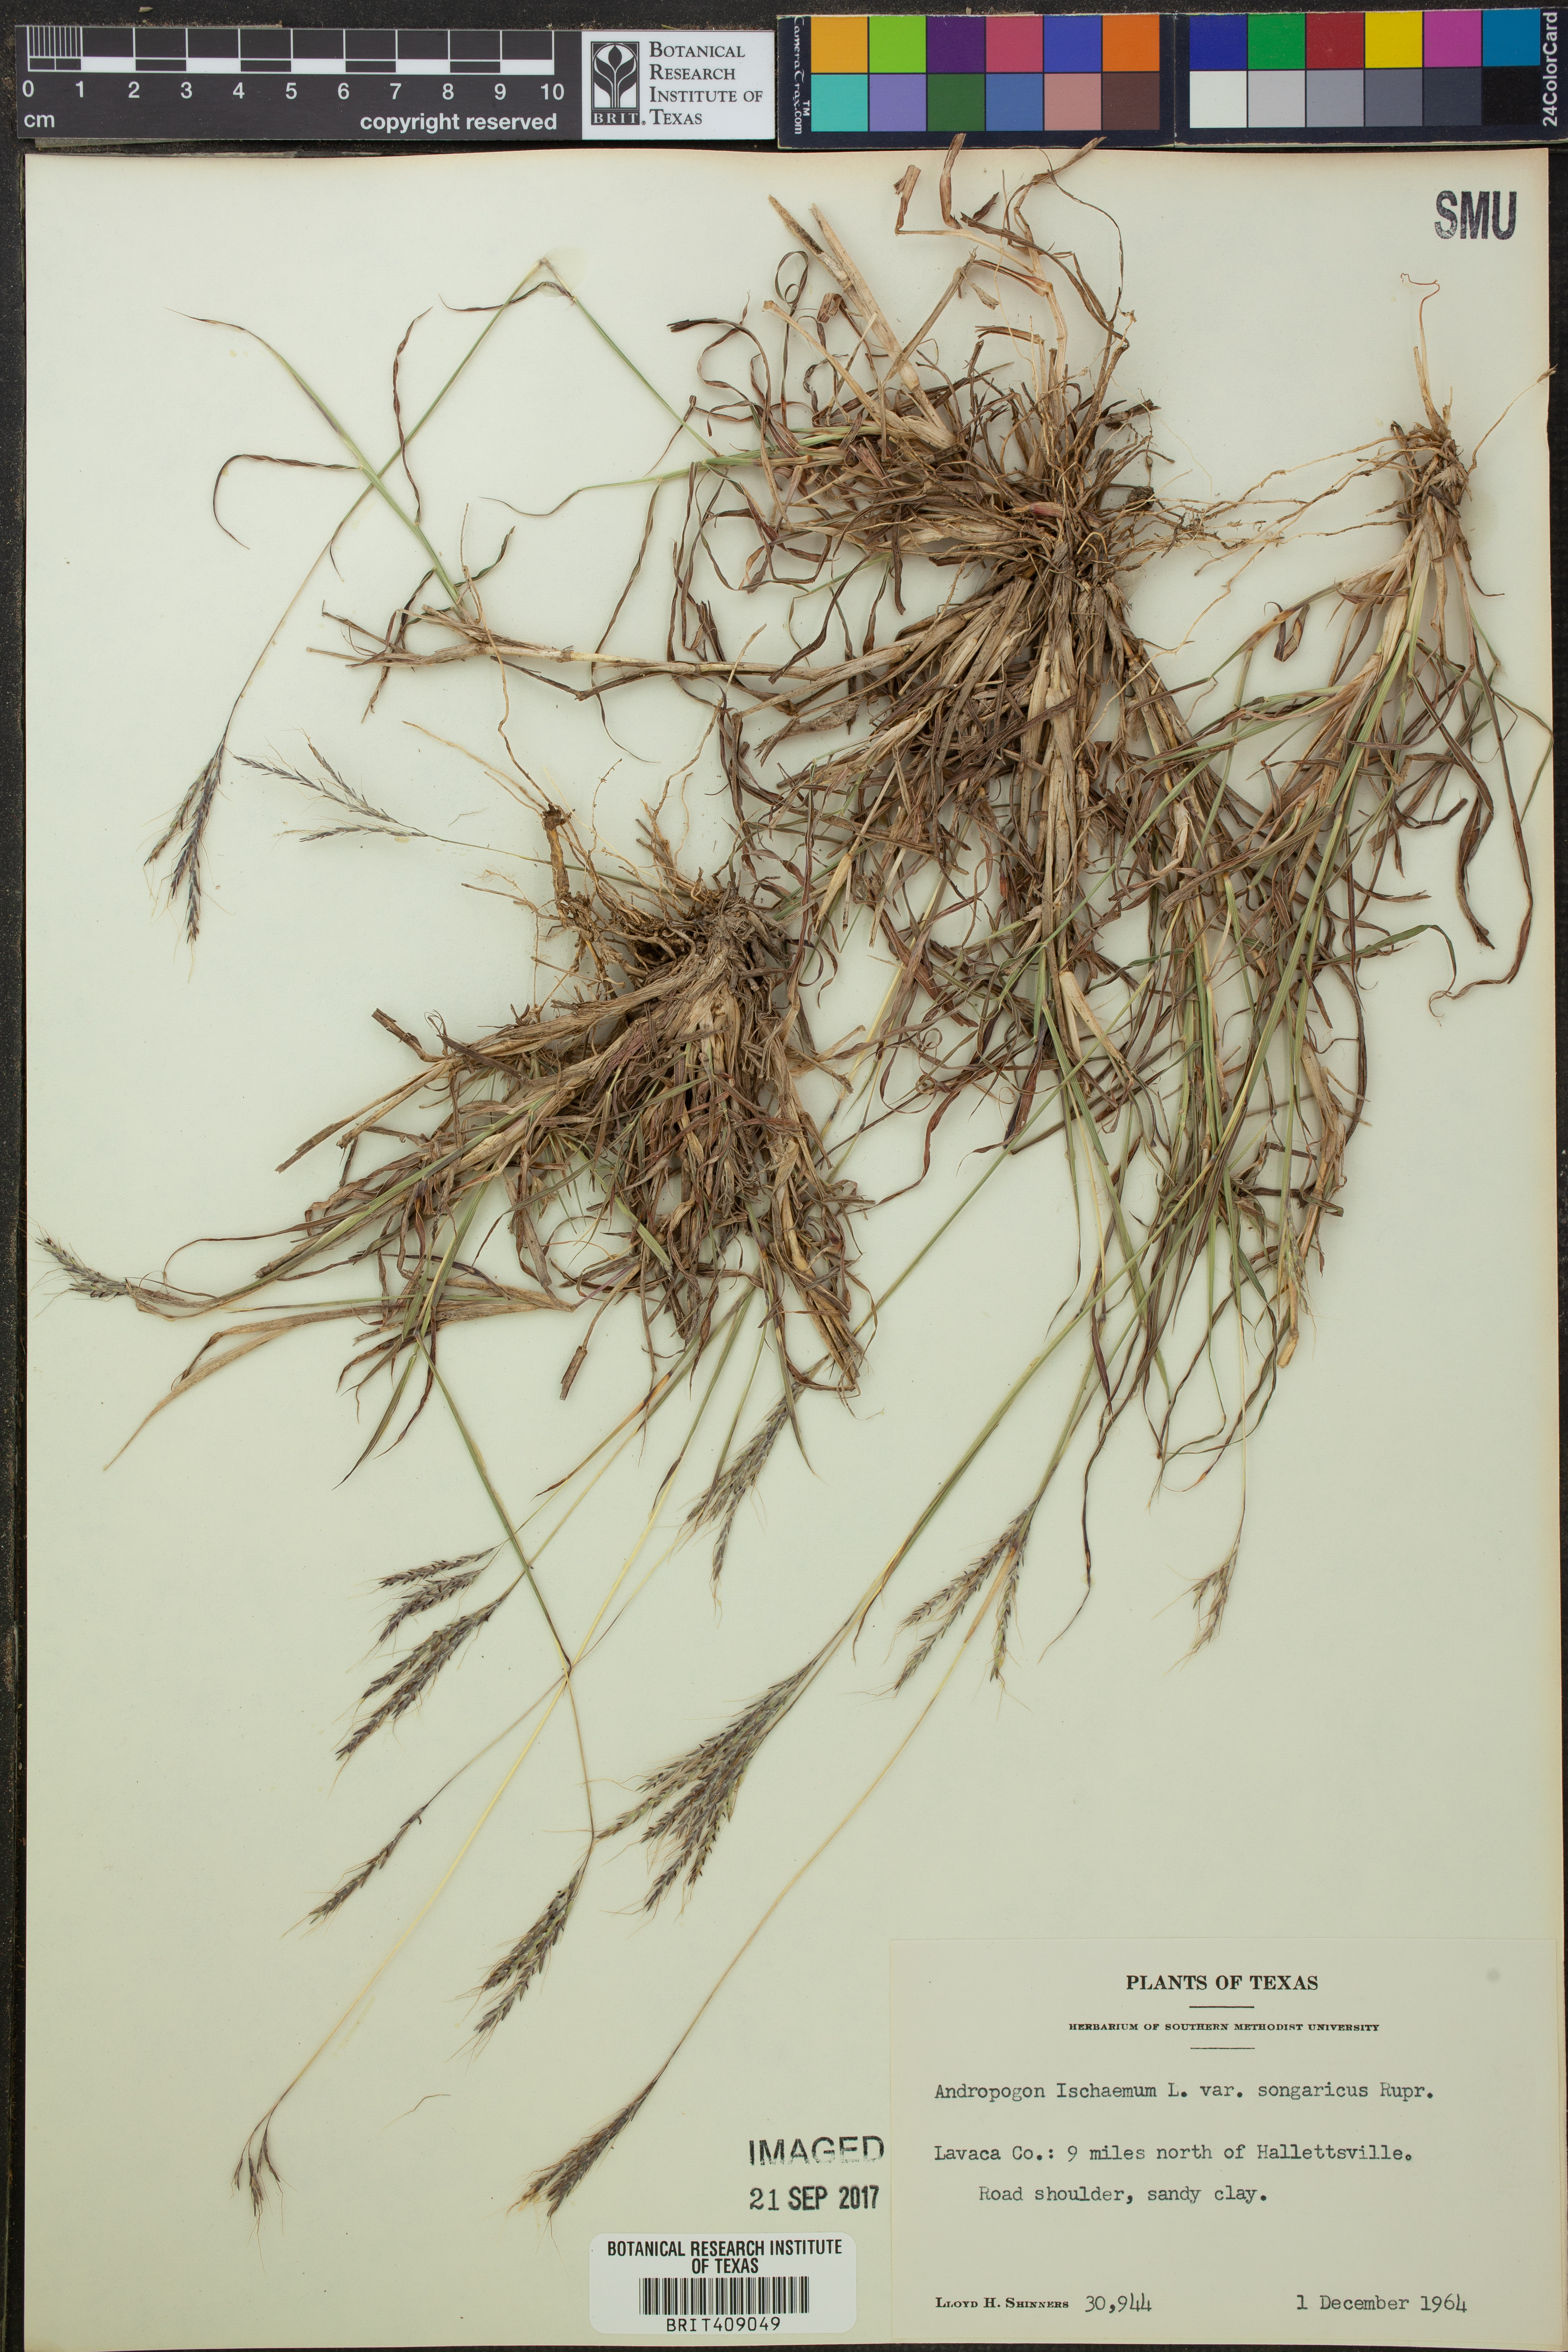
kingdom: Plantae
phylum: Tracheophyta
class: Liliopsida
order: Poales
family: Poaceae
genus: Bothriochloa
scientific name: Bothriochloa ischaemum
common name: Yellow bluestem
